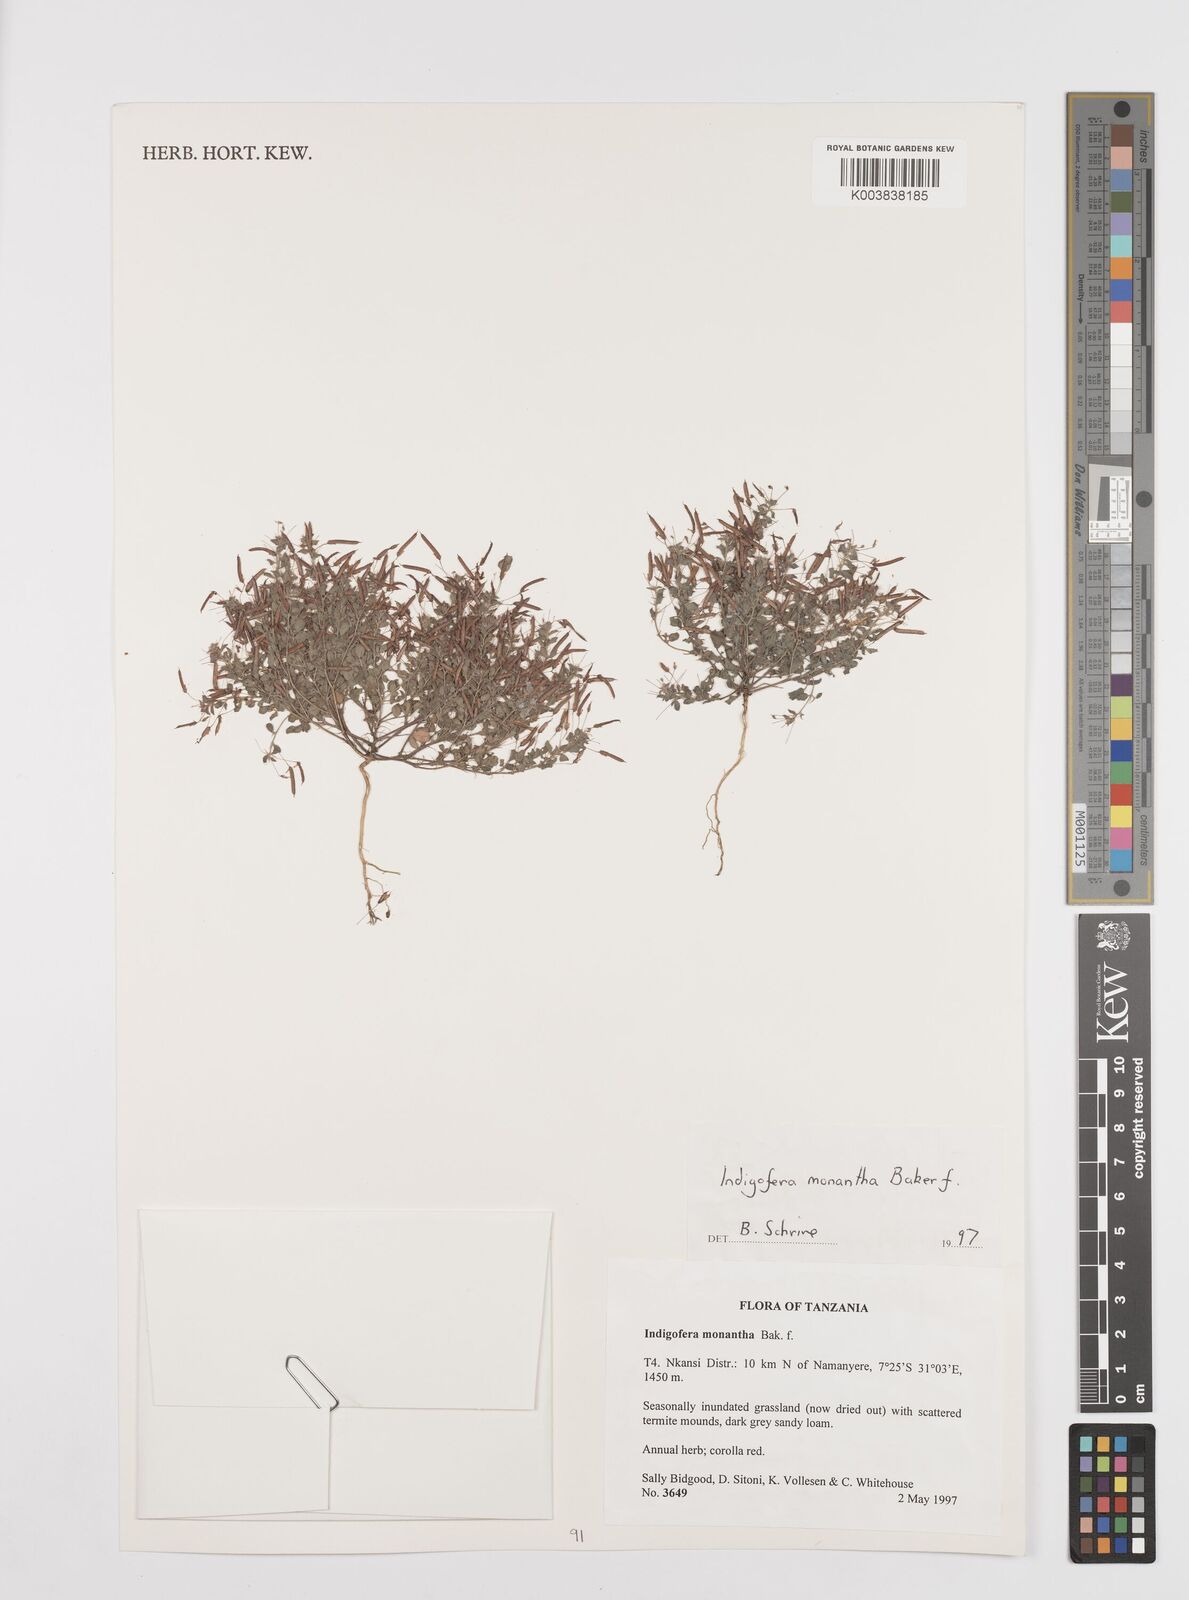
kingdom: Plantae
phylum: Tracheophyta
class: Magnoliopsida
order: Fabales
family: Fabaceae
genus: Indigofera
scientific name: Indigofera monantha
